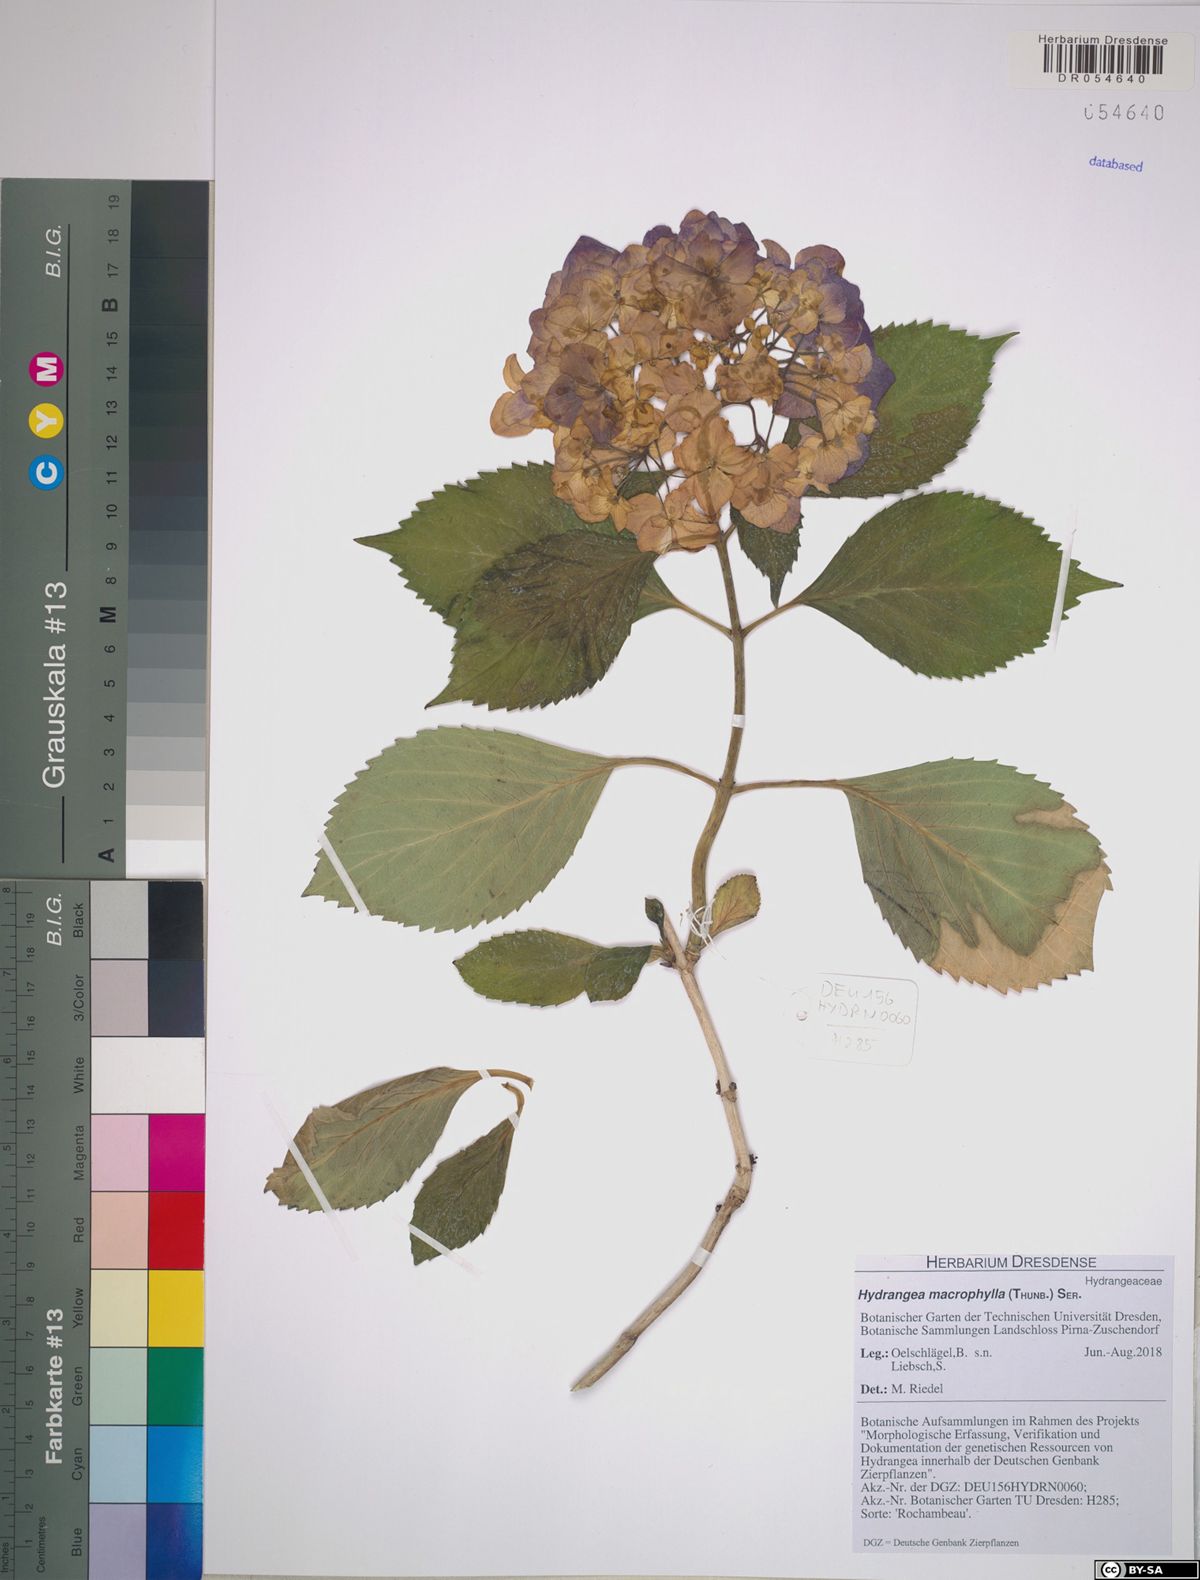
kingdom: Plantae
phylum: Tracheophyta
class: Magnoliopsida
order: Cornales
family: Hydrangeaceae
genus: Hydrangea
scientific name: Hydrangea macrophylla
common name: Hydrangea
